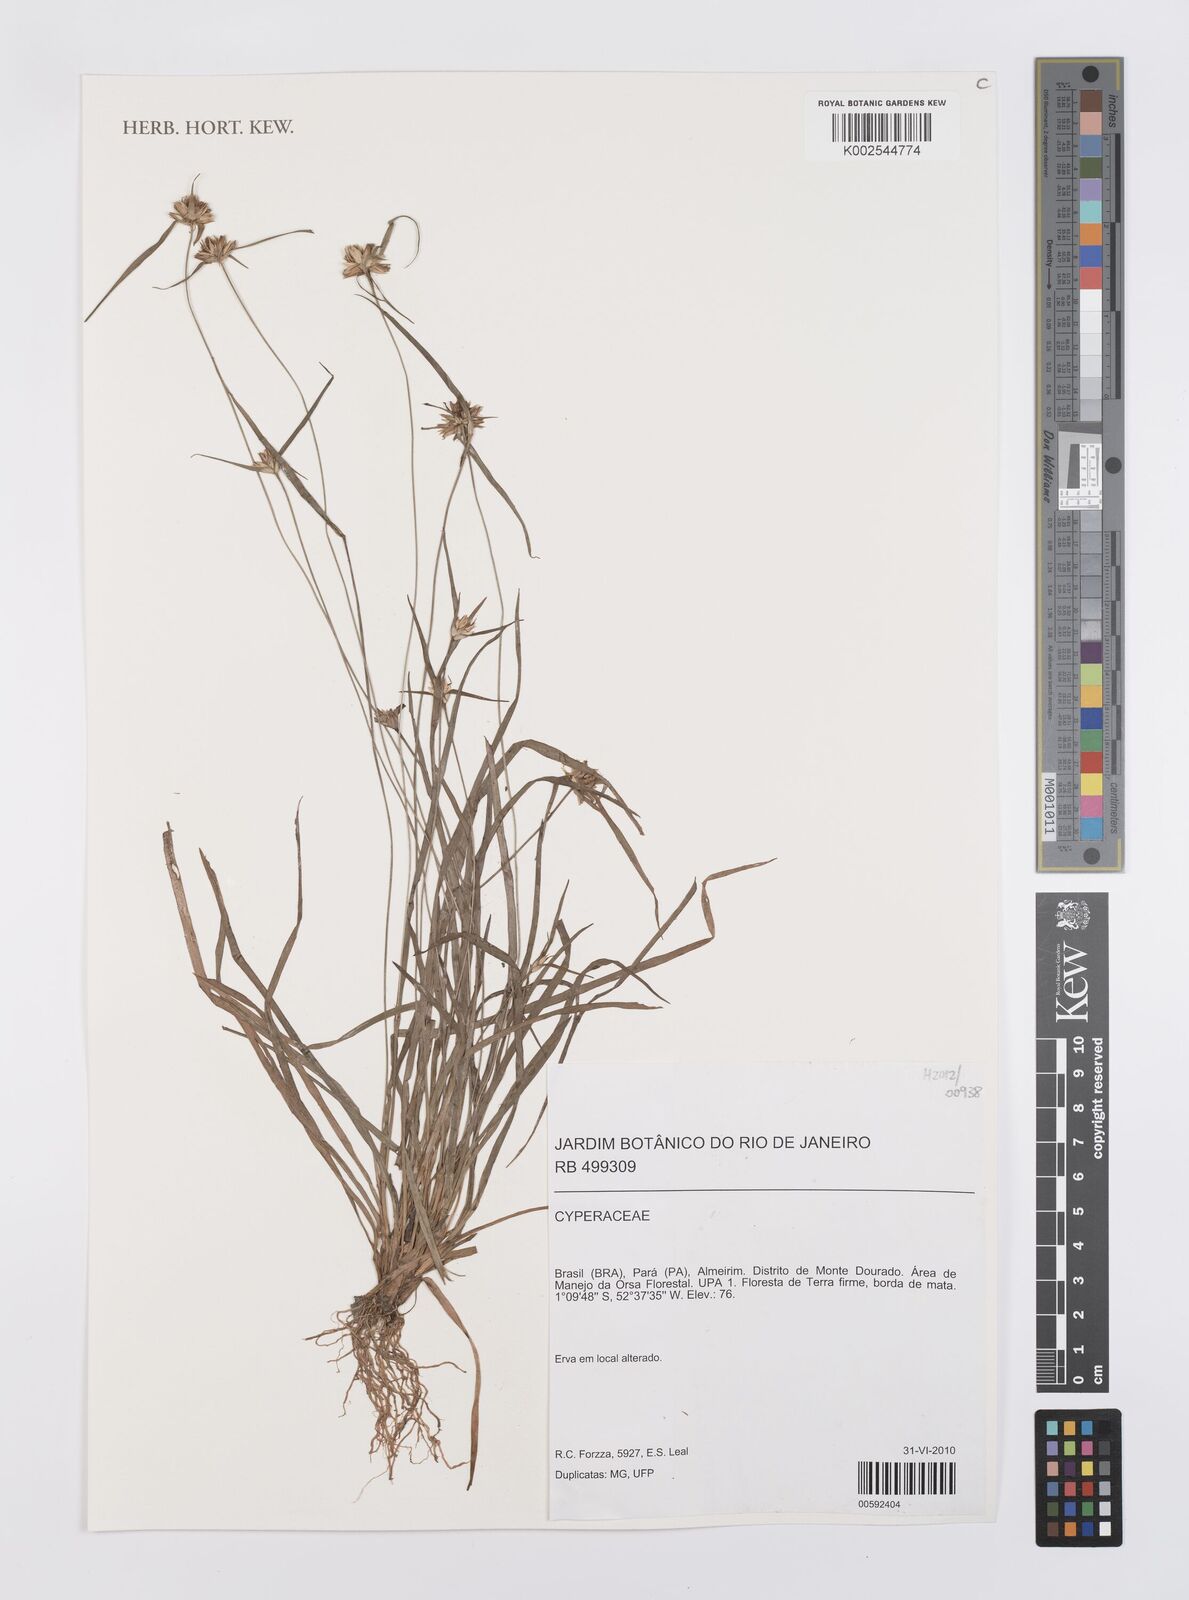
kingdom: Plantae
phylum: Tracheophyta
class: Liliopsida
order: Poales
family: Cyperaceae
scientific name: Cyperaceae
